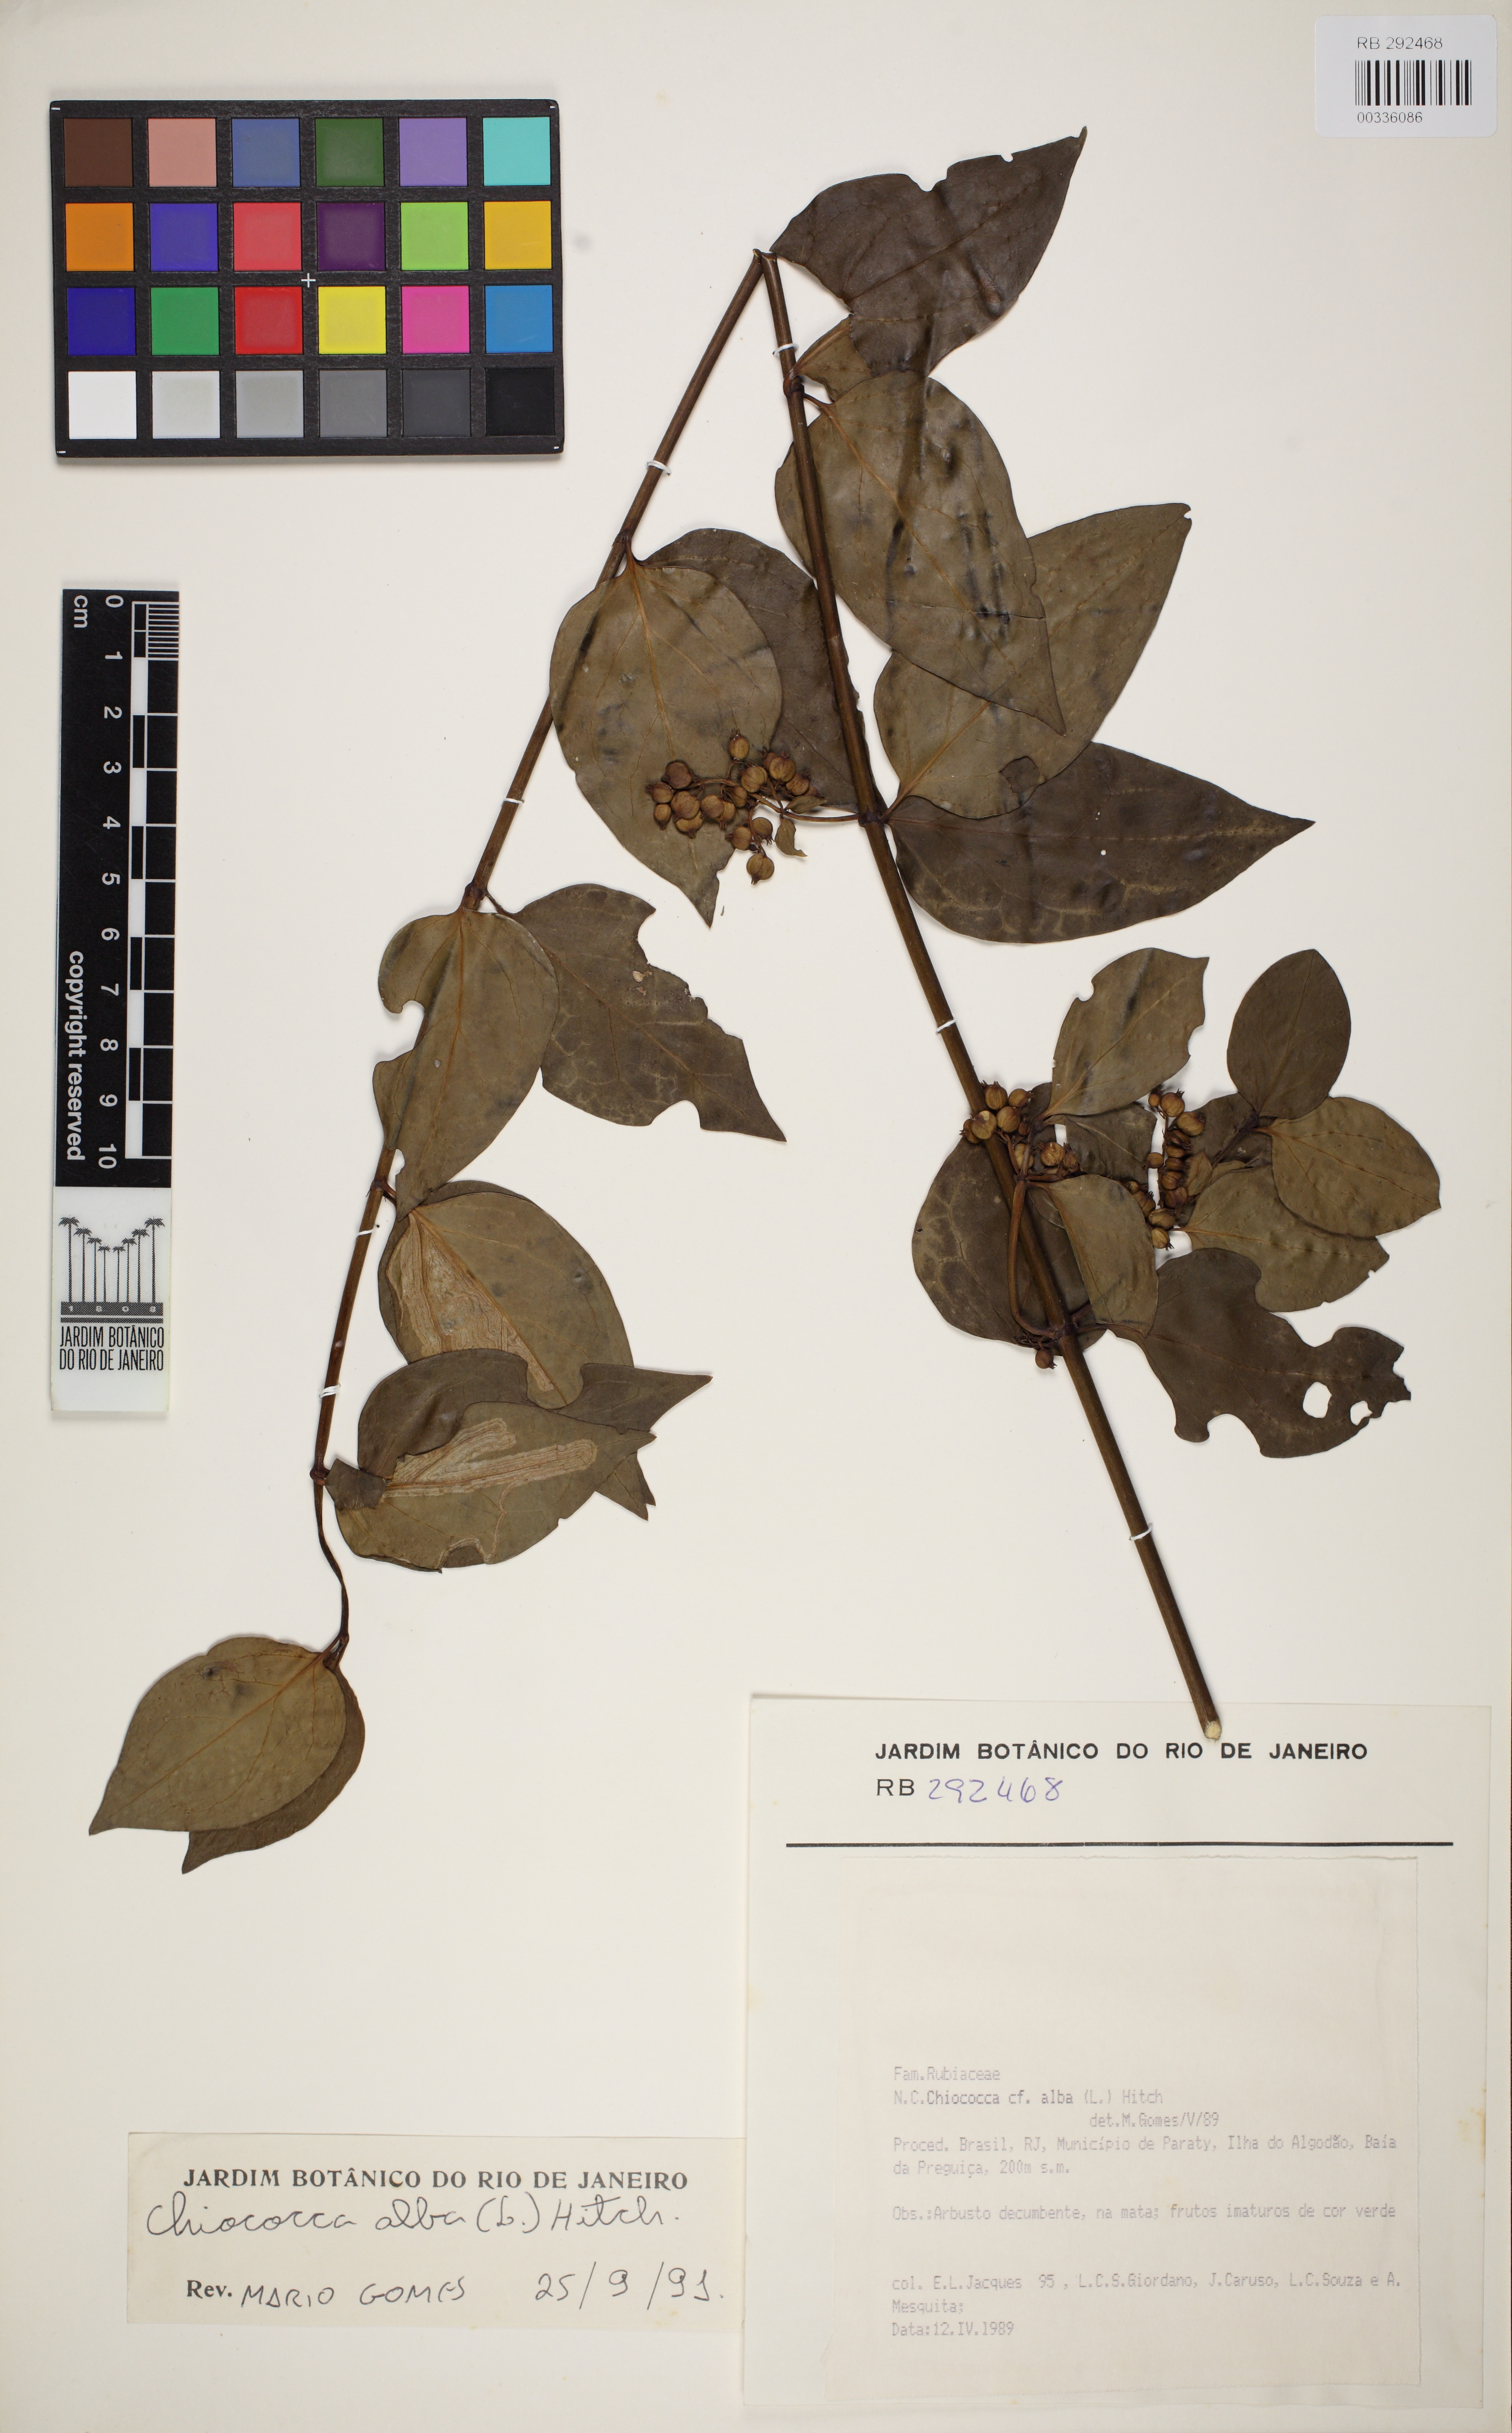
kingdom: Plantae
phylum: Tracheophyta
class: Magnoliopsida
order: Gentianales
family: Rubiaceae
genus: Chiococca
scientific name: Chiococca alba
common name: Snowberry
